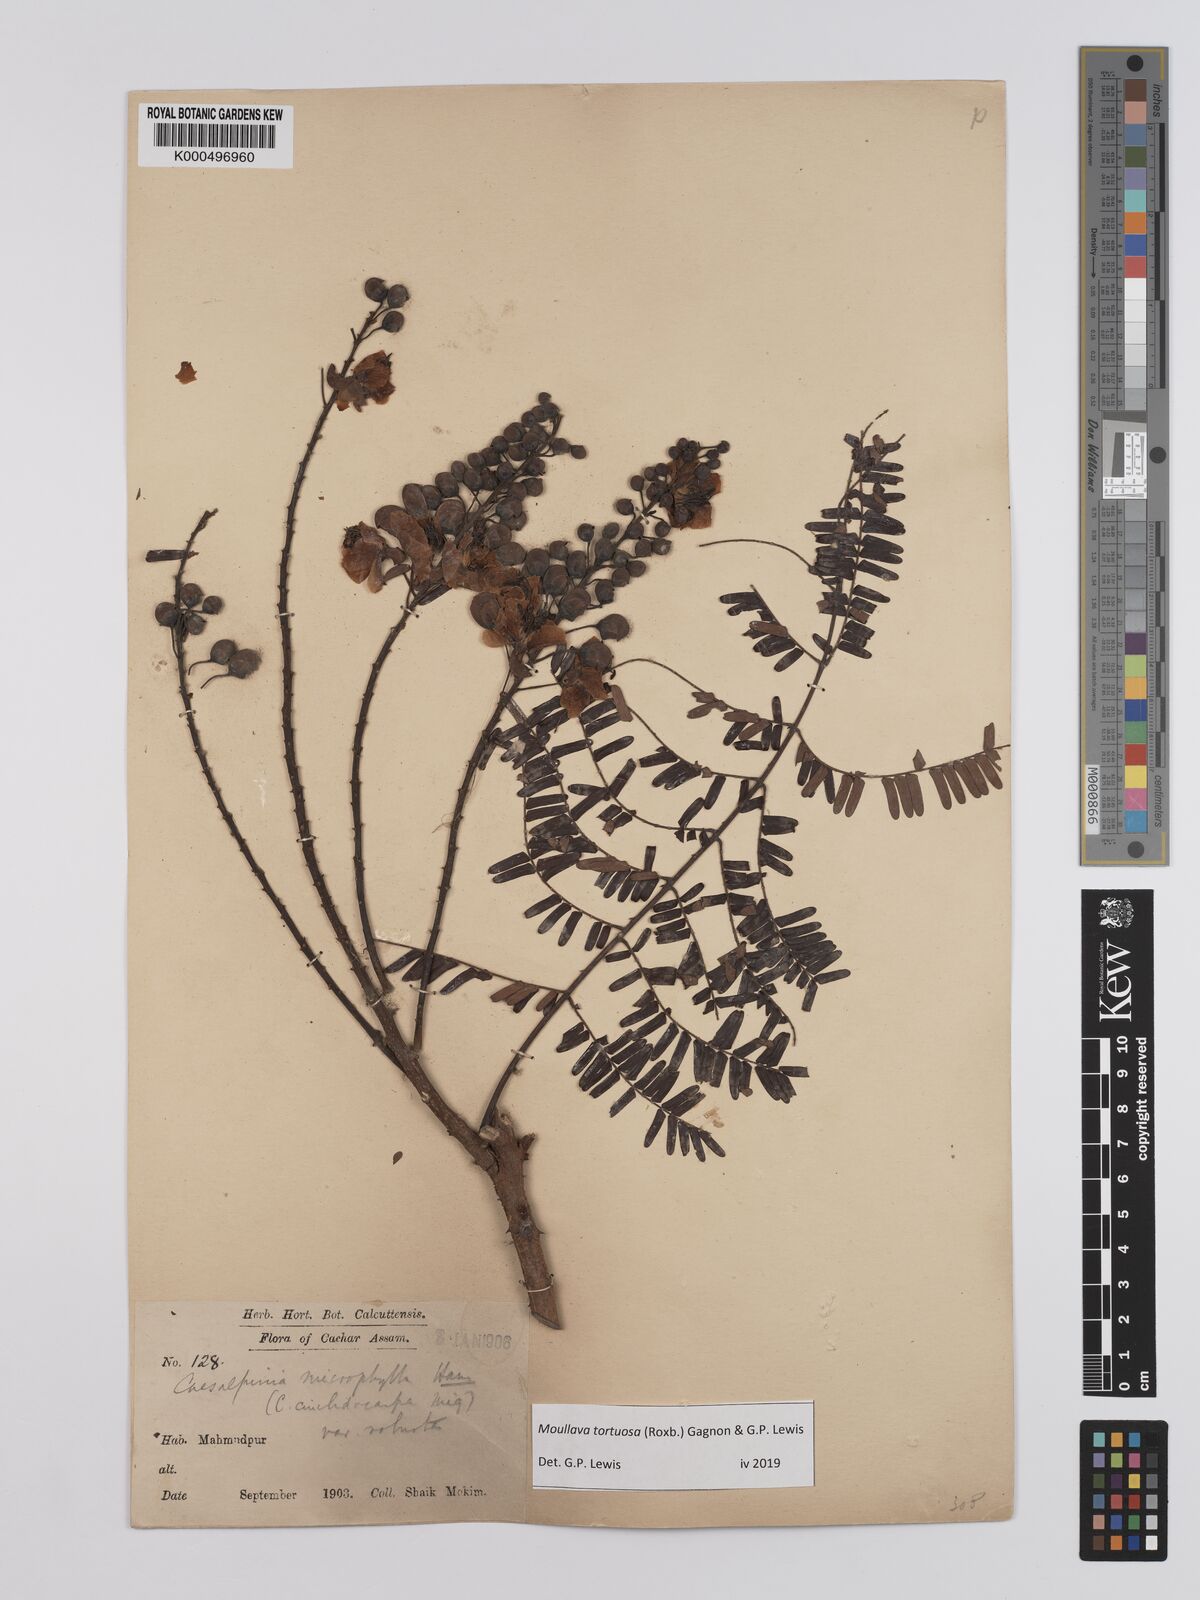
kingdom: Plantae
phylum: Tracheophyta
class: Magnoliopsida
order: Fabales
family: Fabaceae
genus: Moullava
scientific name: Moullava tortuosa
